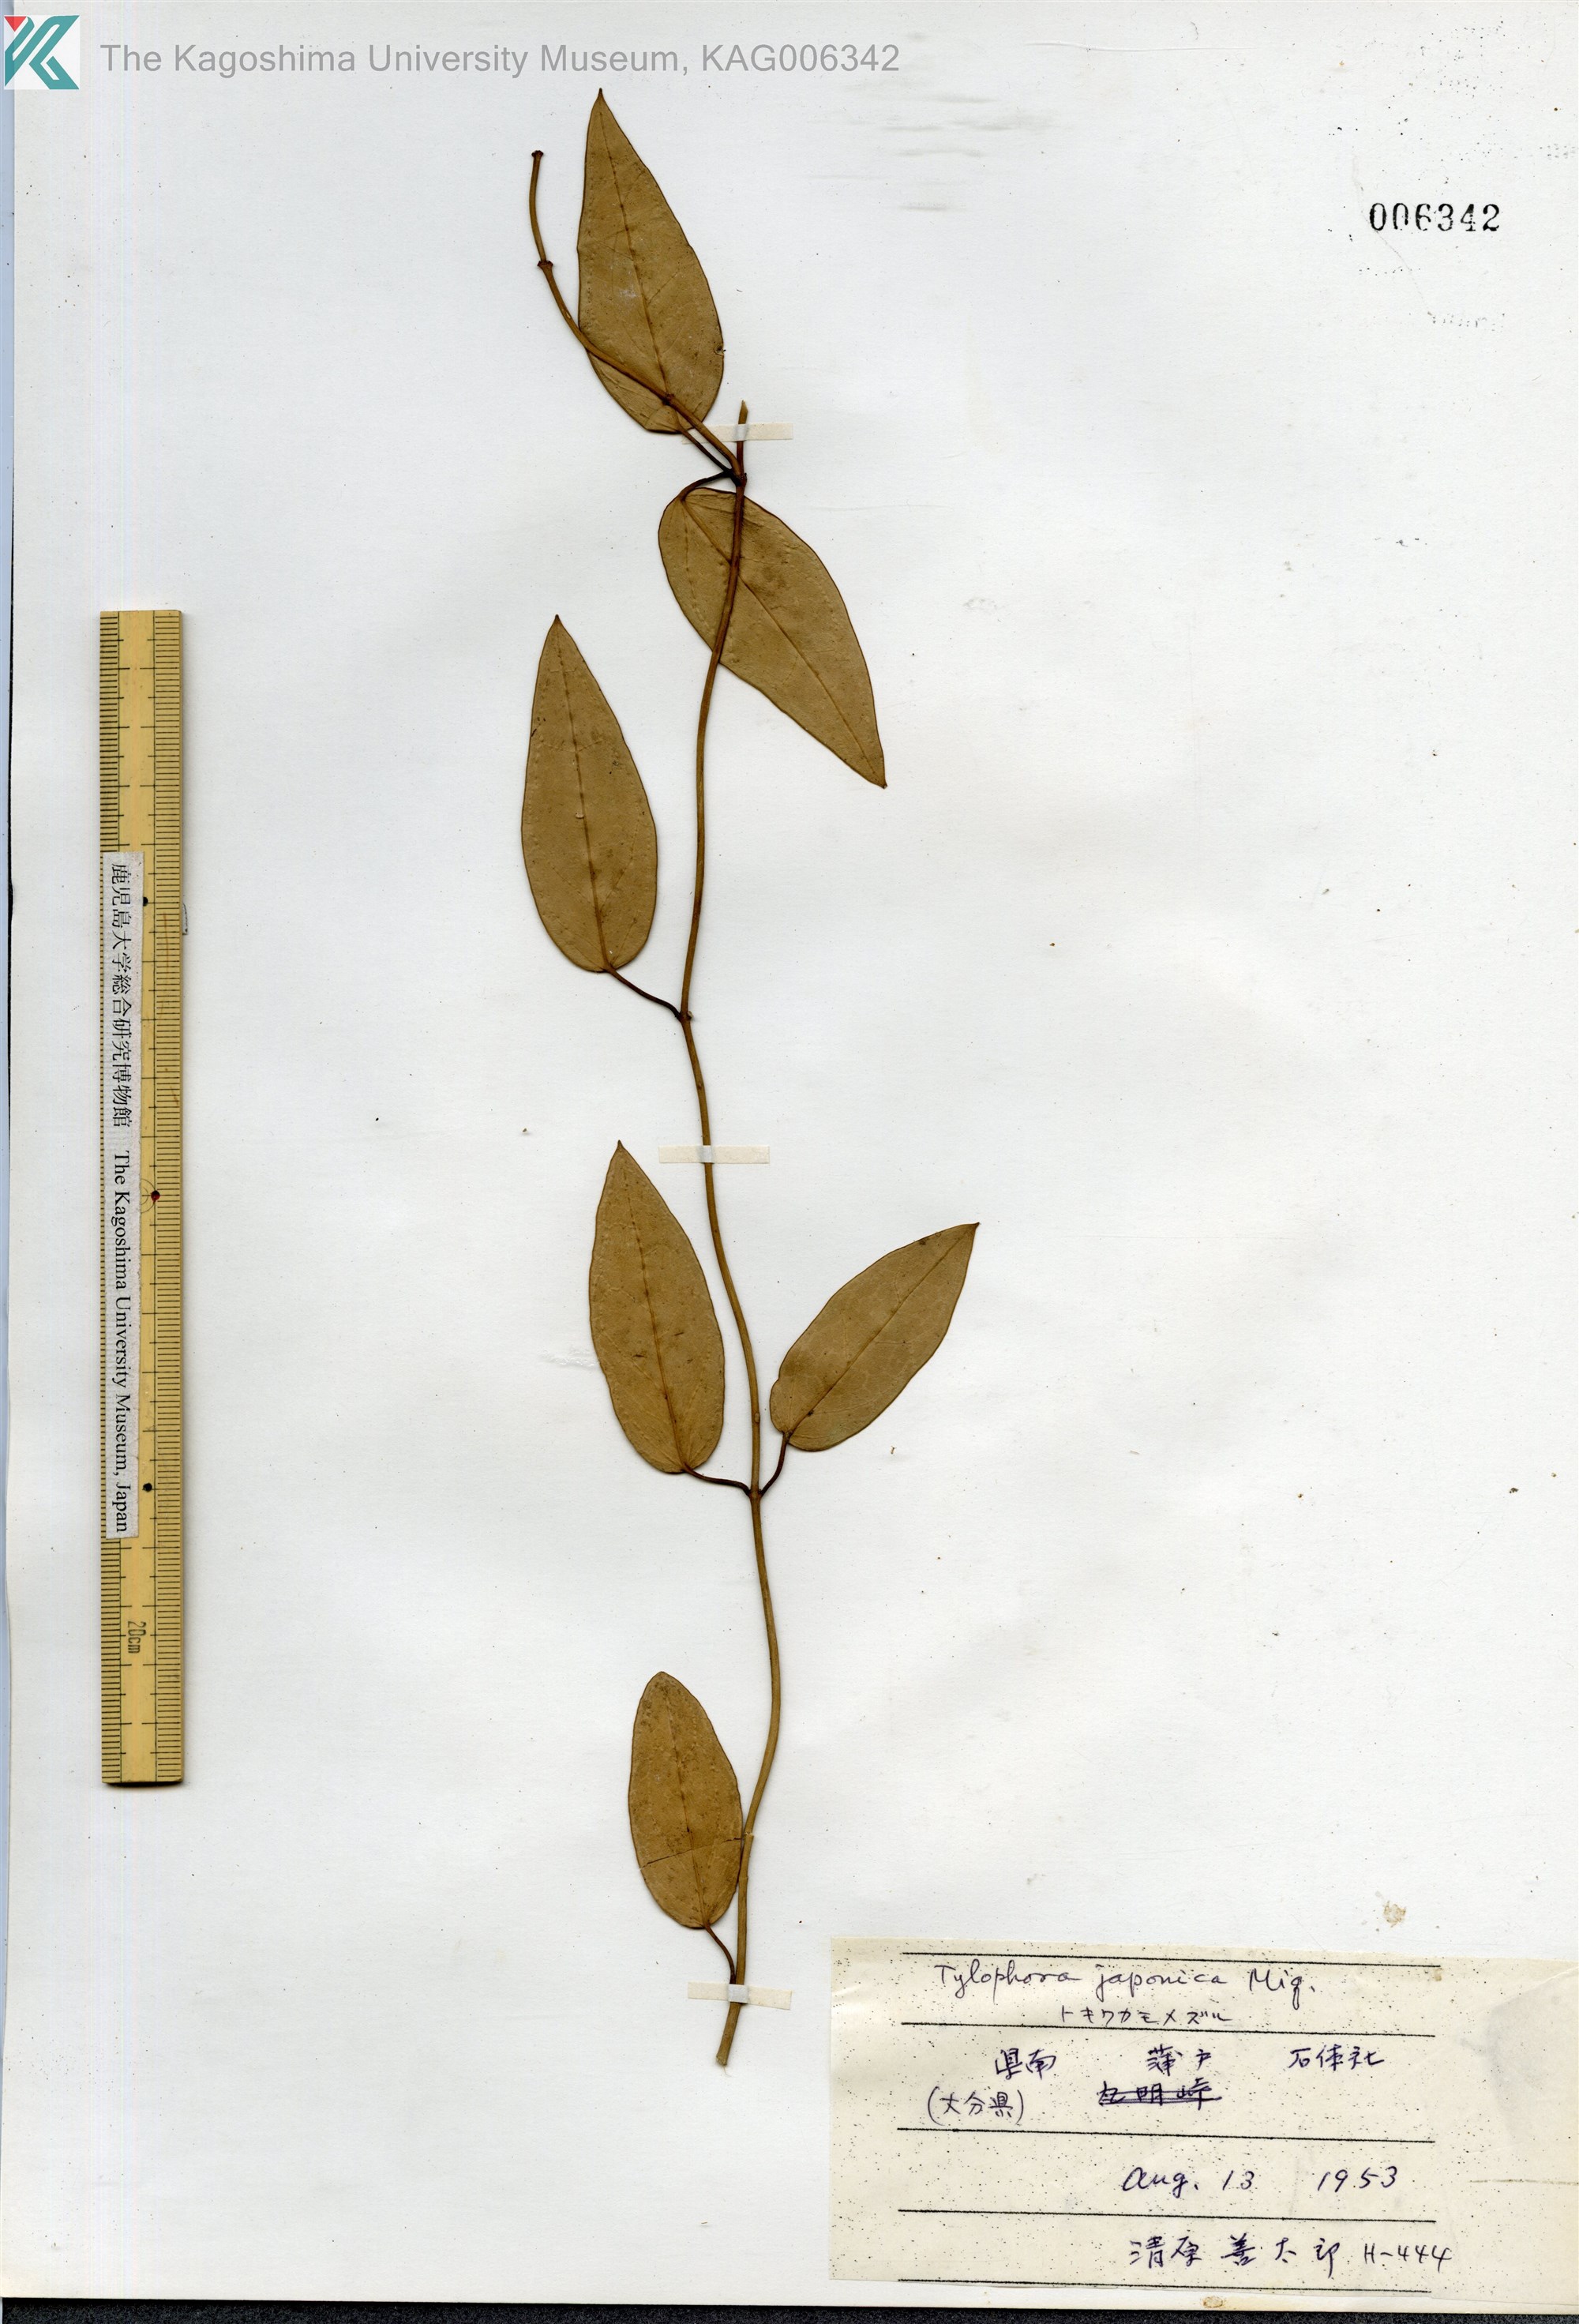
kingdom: Plantae
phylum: Tracheophyta
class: Magnoliopsida
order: Gentianales
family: Apocynaceae
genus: Vincetoxicum
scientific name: Vincetoxicum sieboldii
